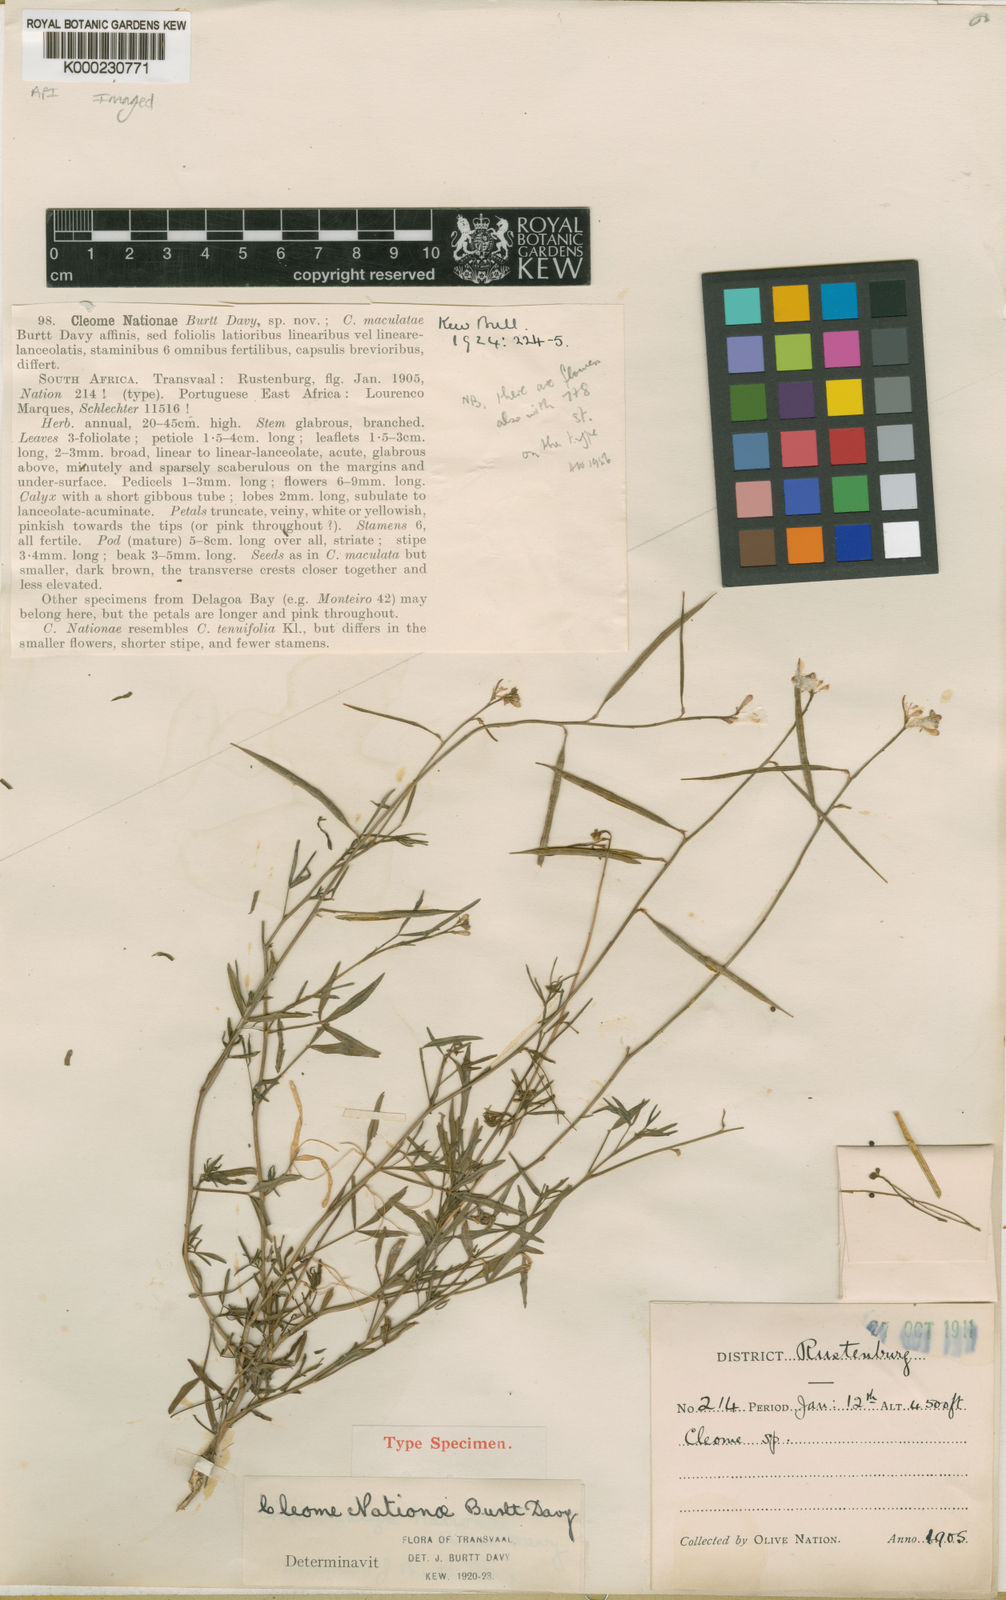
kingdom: Plantae
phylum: Tracheophyta
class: Magnoliopsida
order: Brassicales
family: Cleomaceae
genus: Sieruela
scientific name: Sieruela macrophylla
